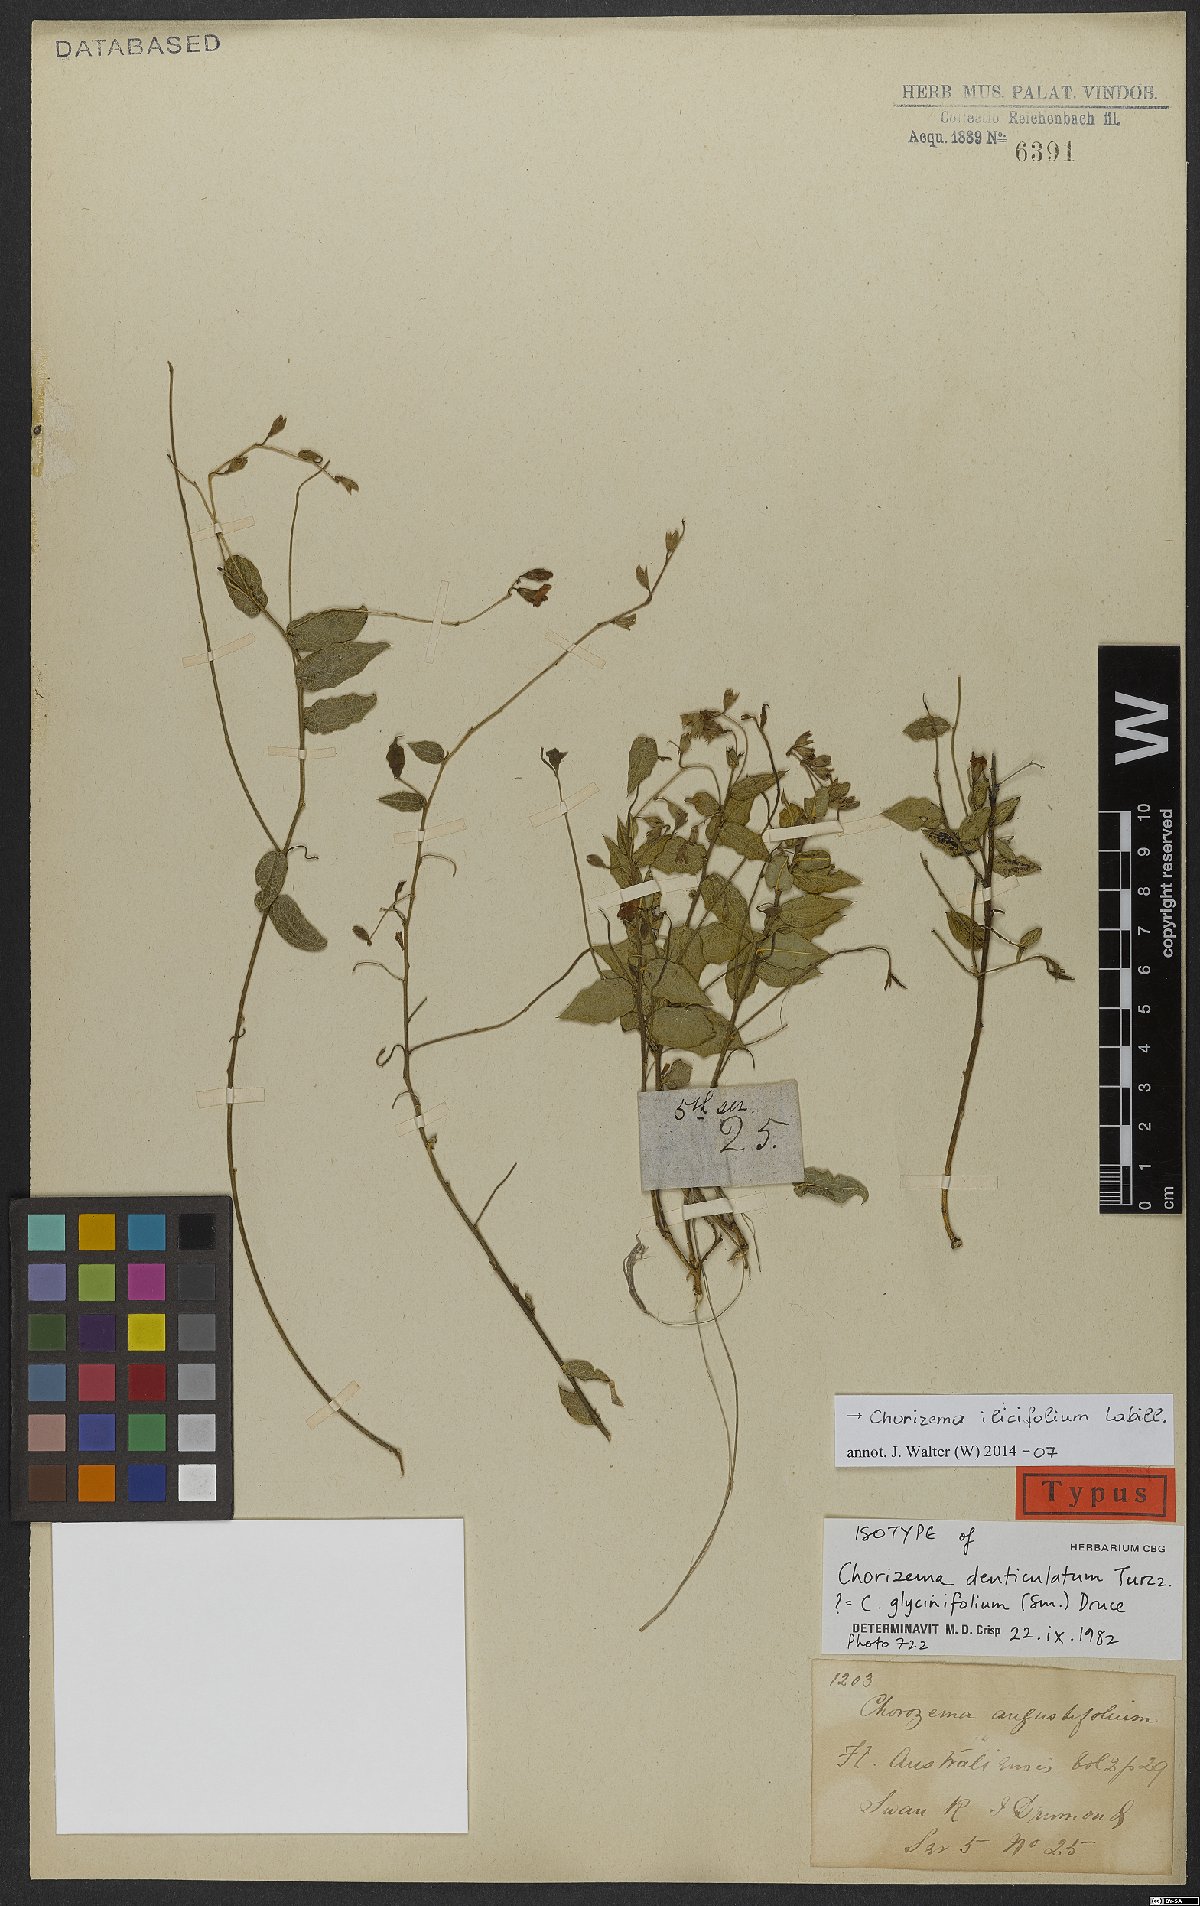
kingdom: Plantae
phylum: Tracheophyta
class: Magnoliopsida
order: Fabales
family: Fabaceae
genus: Chorizema
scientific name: Chorizema ilicifolium
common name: Holly flame-pea
